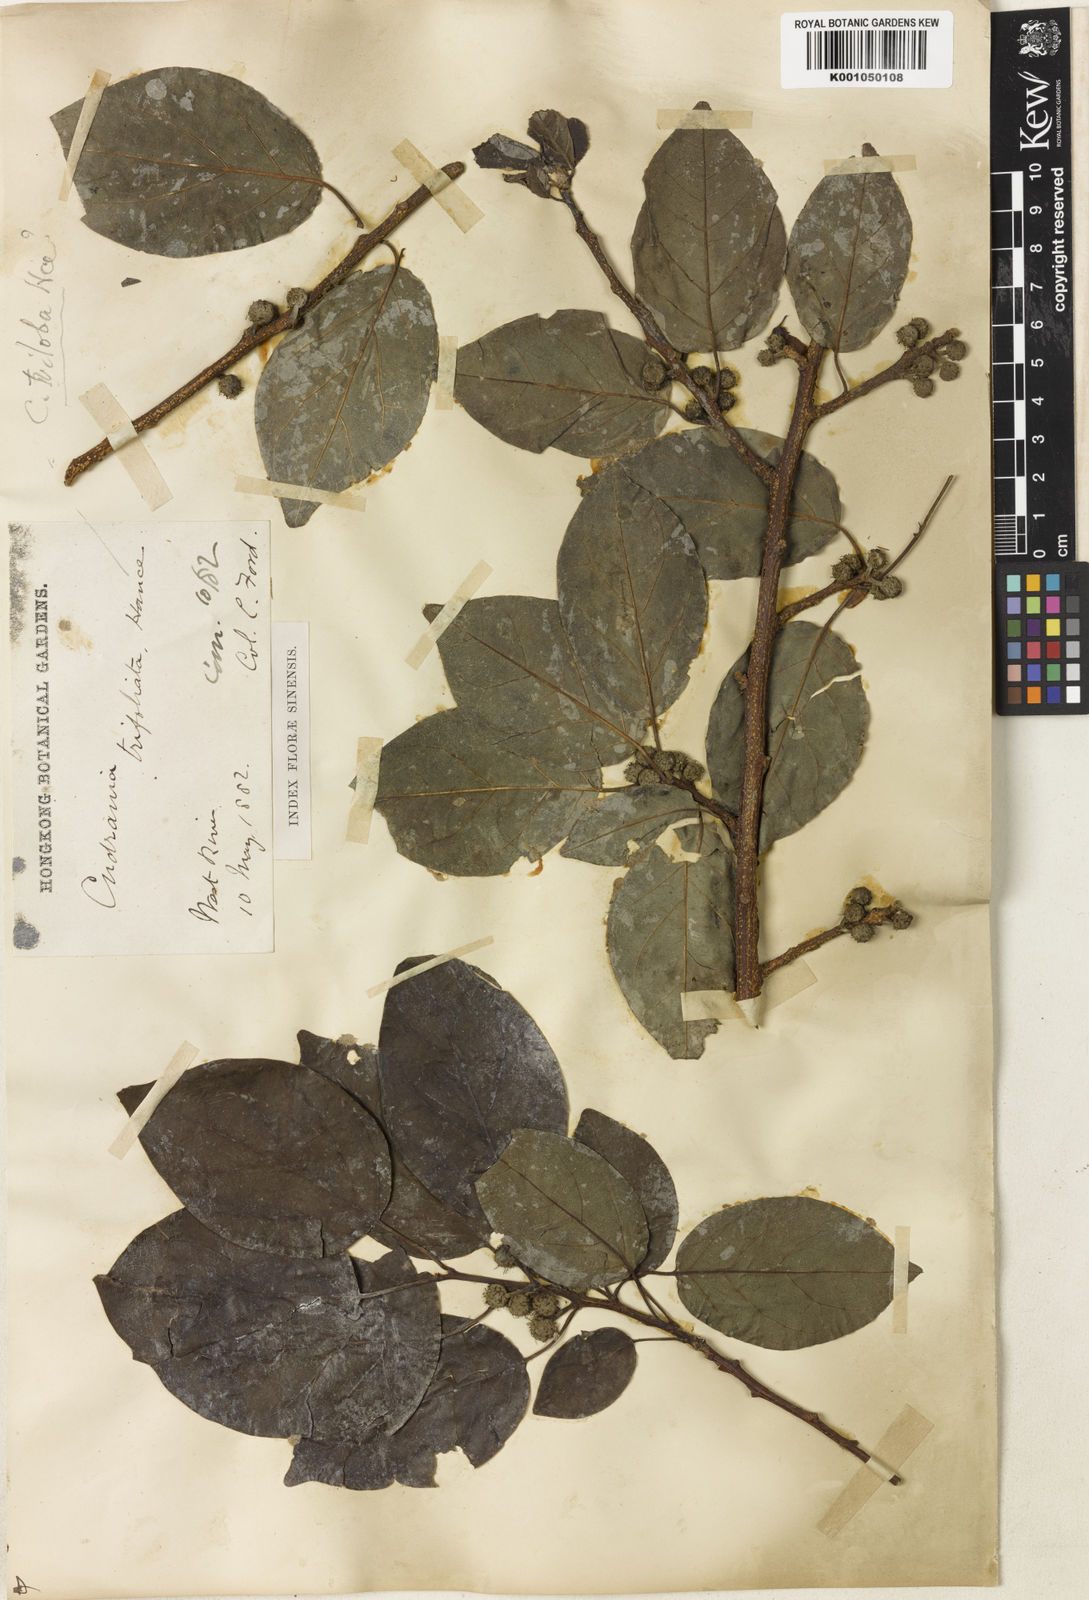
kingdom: Plantae
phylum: Tracheophyta
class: Magnoliopsida
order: Rosales
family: Moraceae
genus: Maclura
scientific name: Maclura
